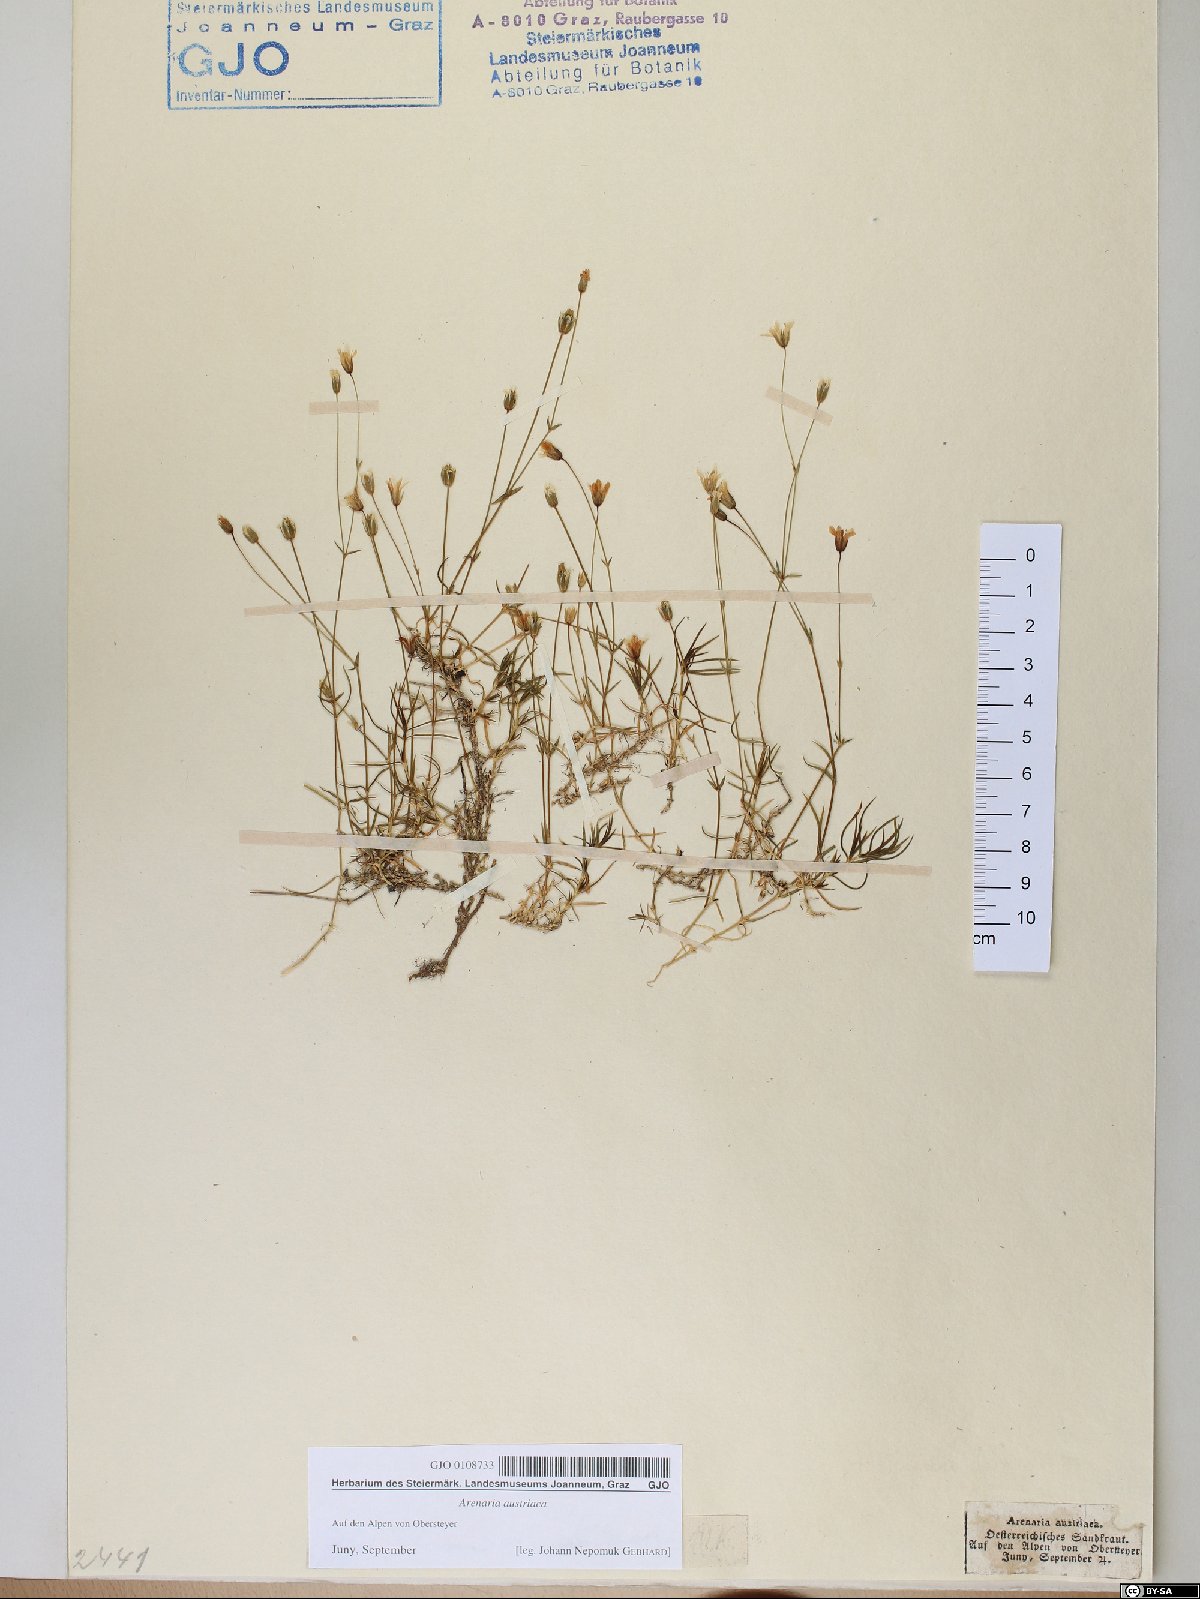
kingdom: Plantae
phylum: Tracheophyta
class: Magnoliopsida
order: Caryophyllales
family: Caryophyllaceae
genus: Sabulina
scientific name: Sabulina austriaca
